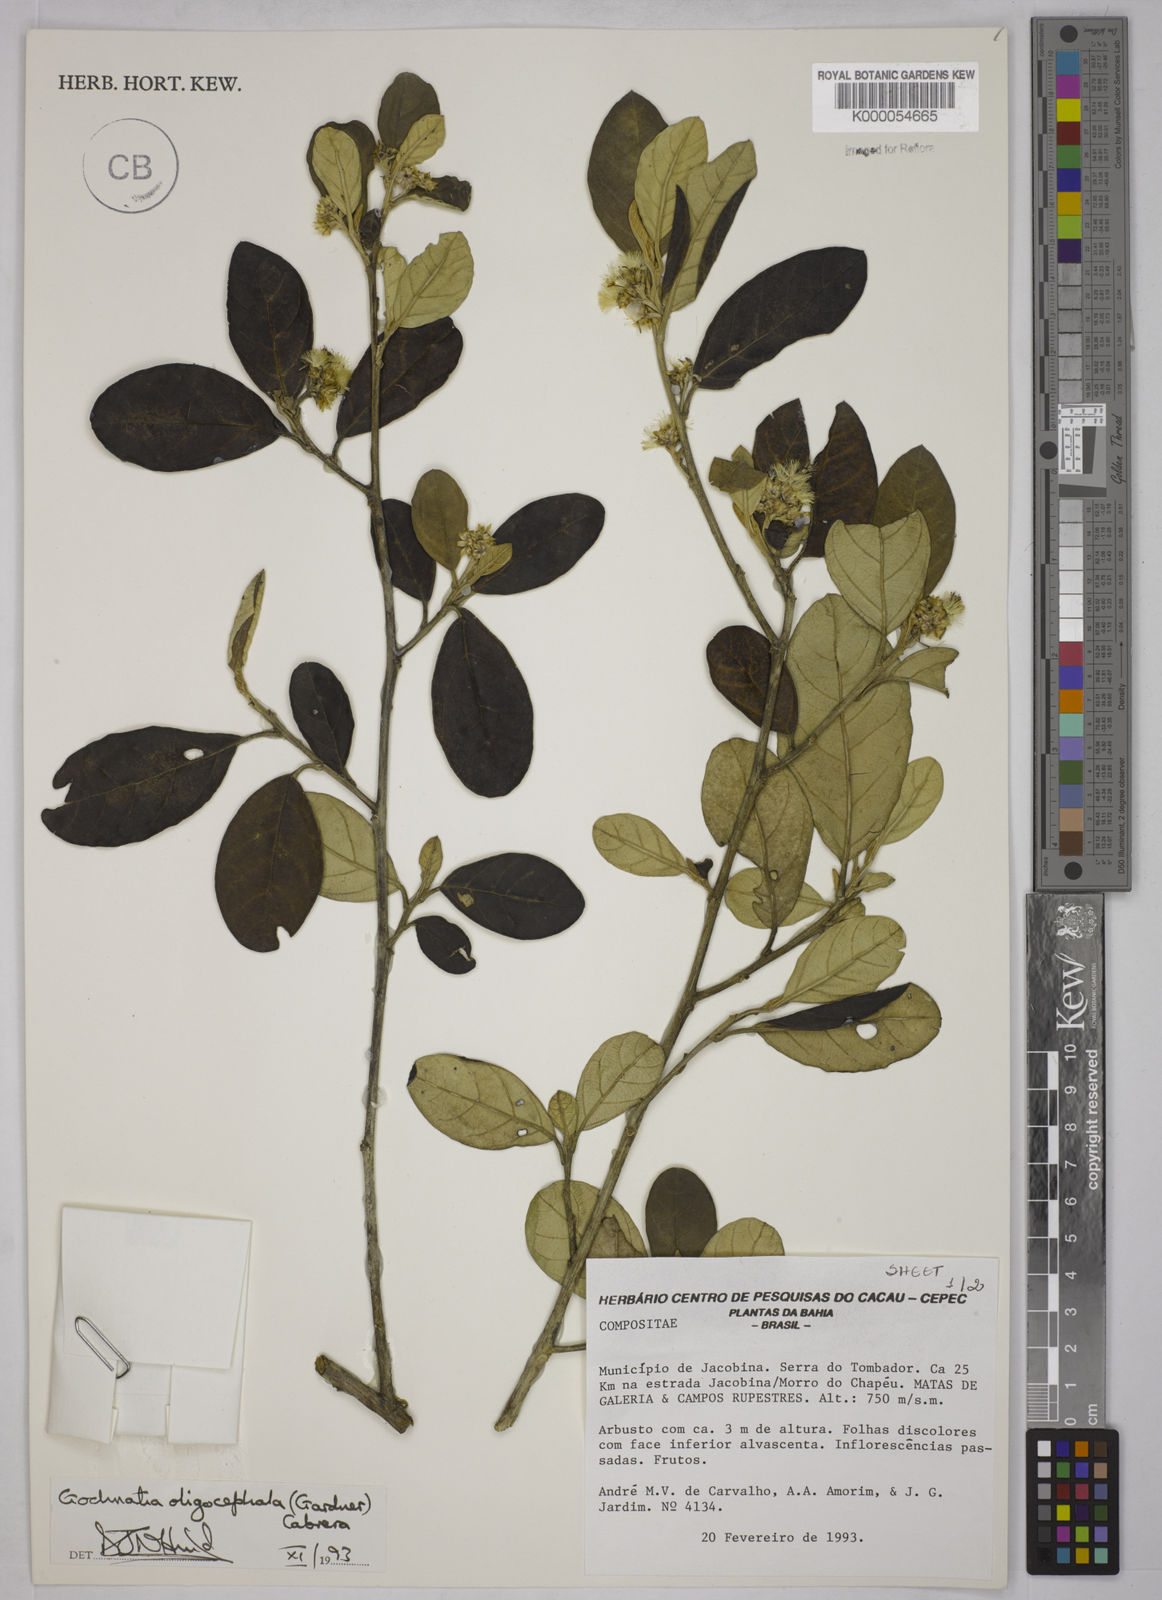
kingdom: Plantae
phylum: Tracheophyta
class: Magnoliopsida
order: Asterales
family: Asteraceae
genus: Moquiniastrum
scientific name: Moquiniastrum oligocephalum
